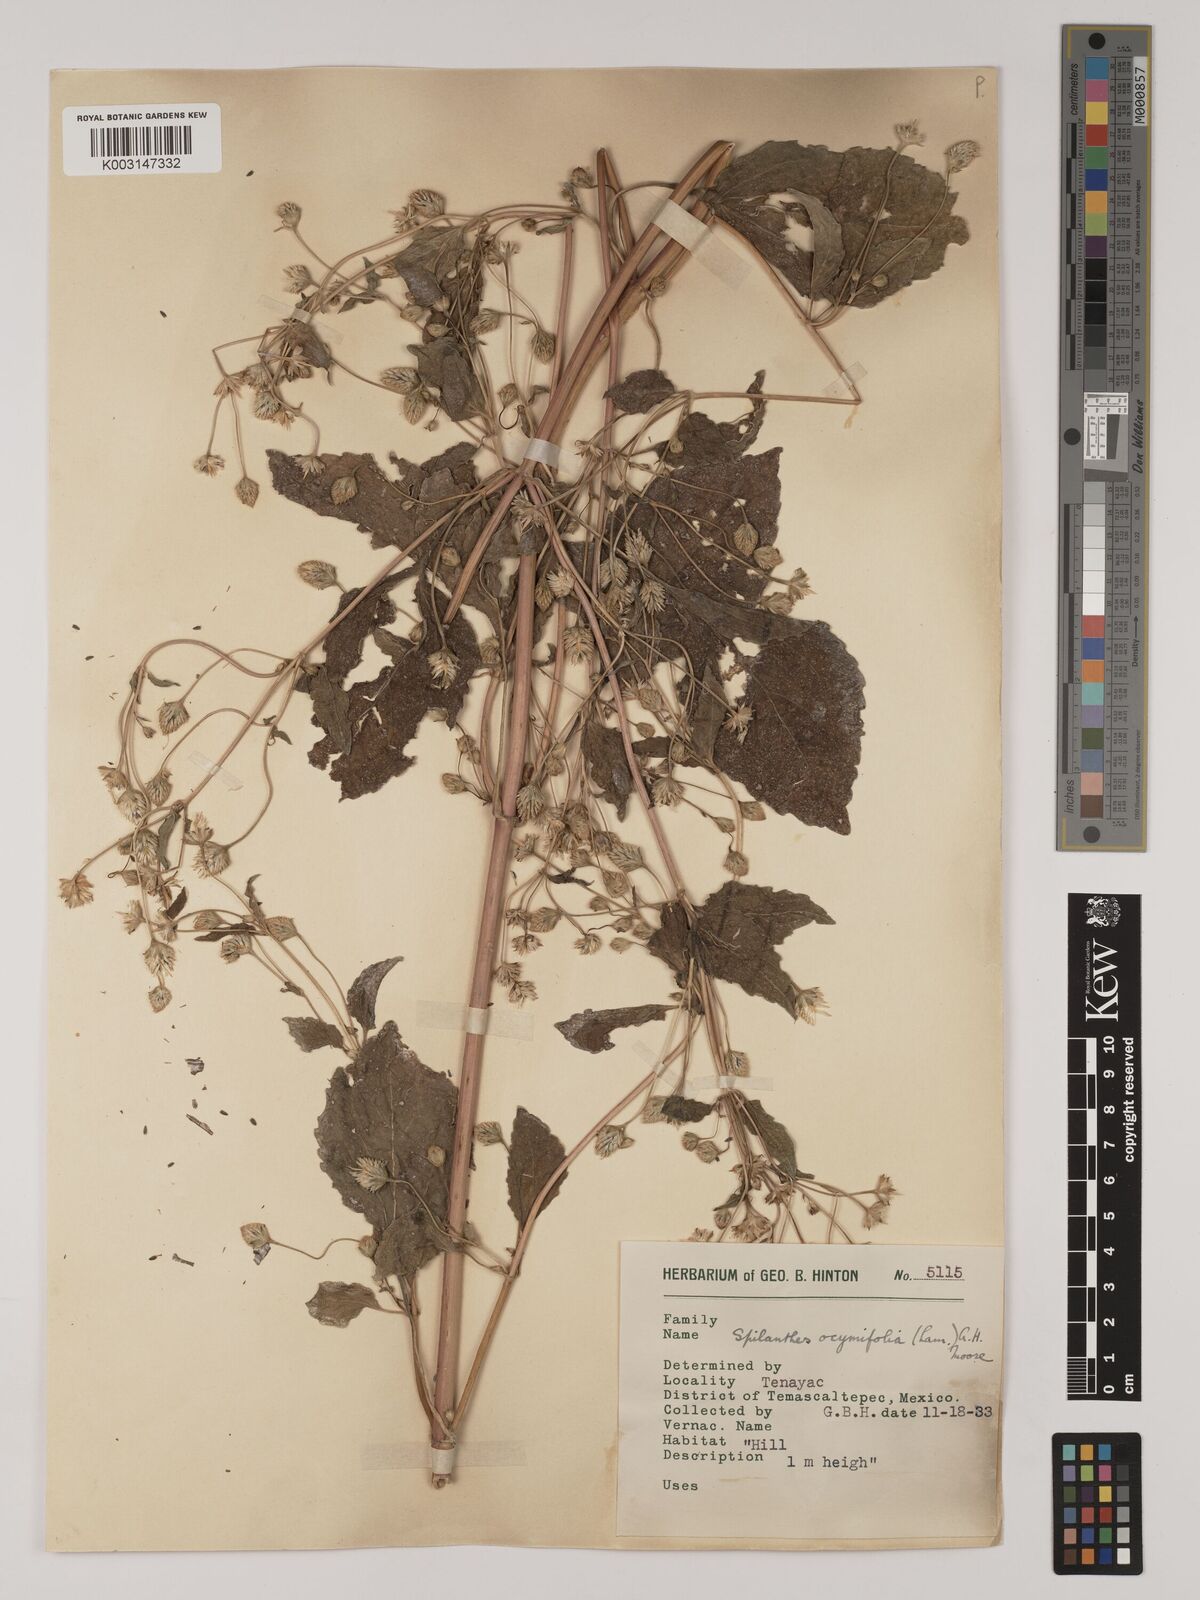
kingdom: Plantae
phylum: Tracheophyta
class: Magnoliopsida
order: Asterales
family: Asteraceae
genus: Acmella
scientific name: Acmella radicans
